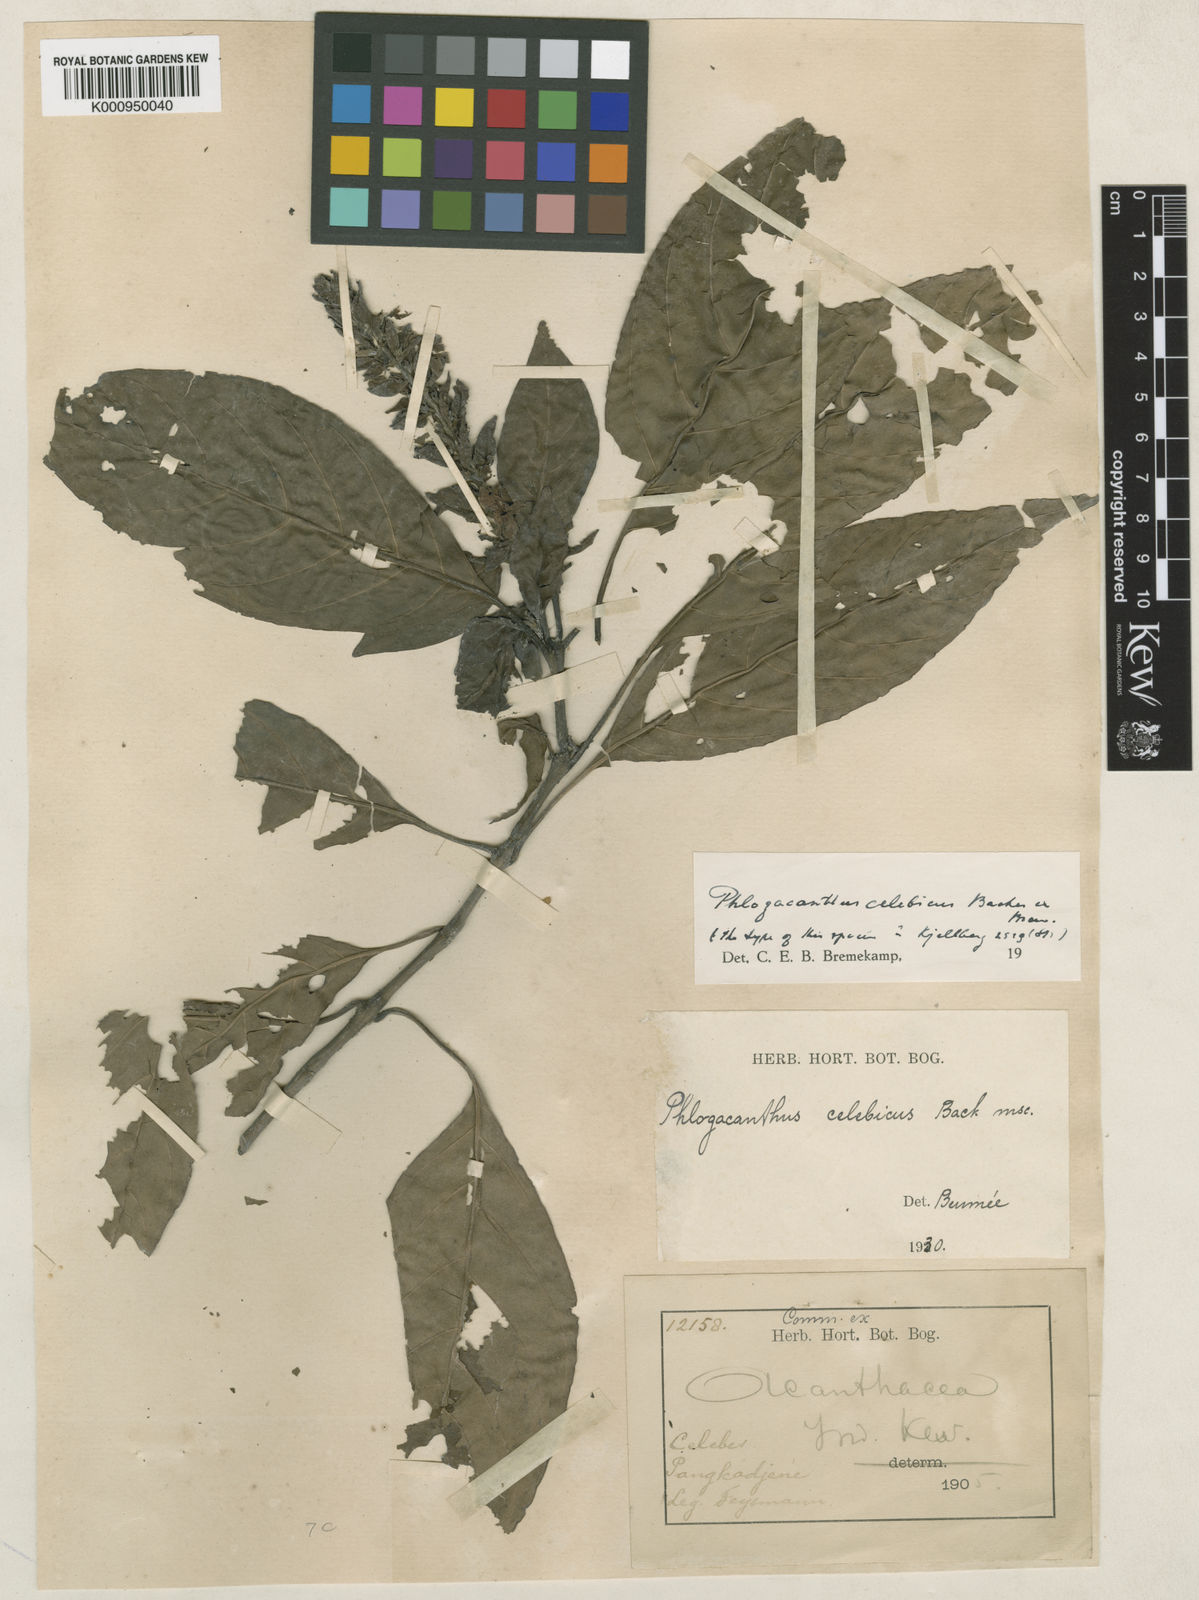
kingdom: Plantae
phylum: Tracheophyta
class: Magnoliopsida
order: Lamiales
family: Acanthaceae
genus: Phlogacanthus
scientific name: Phlogacanthus celebicus
